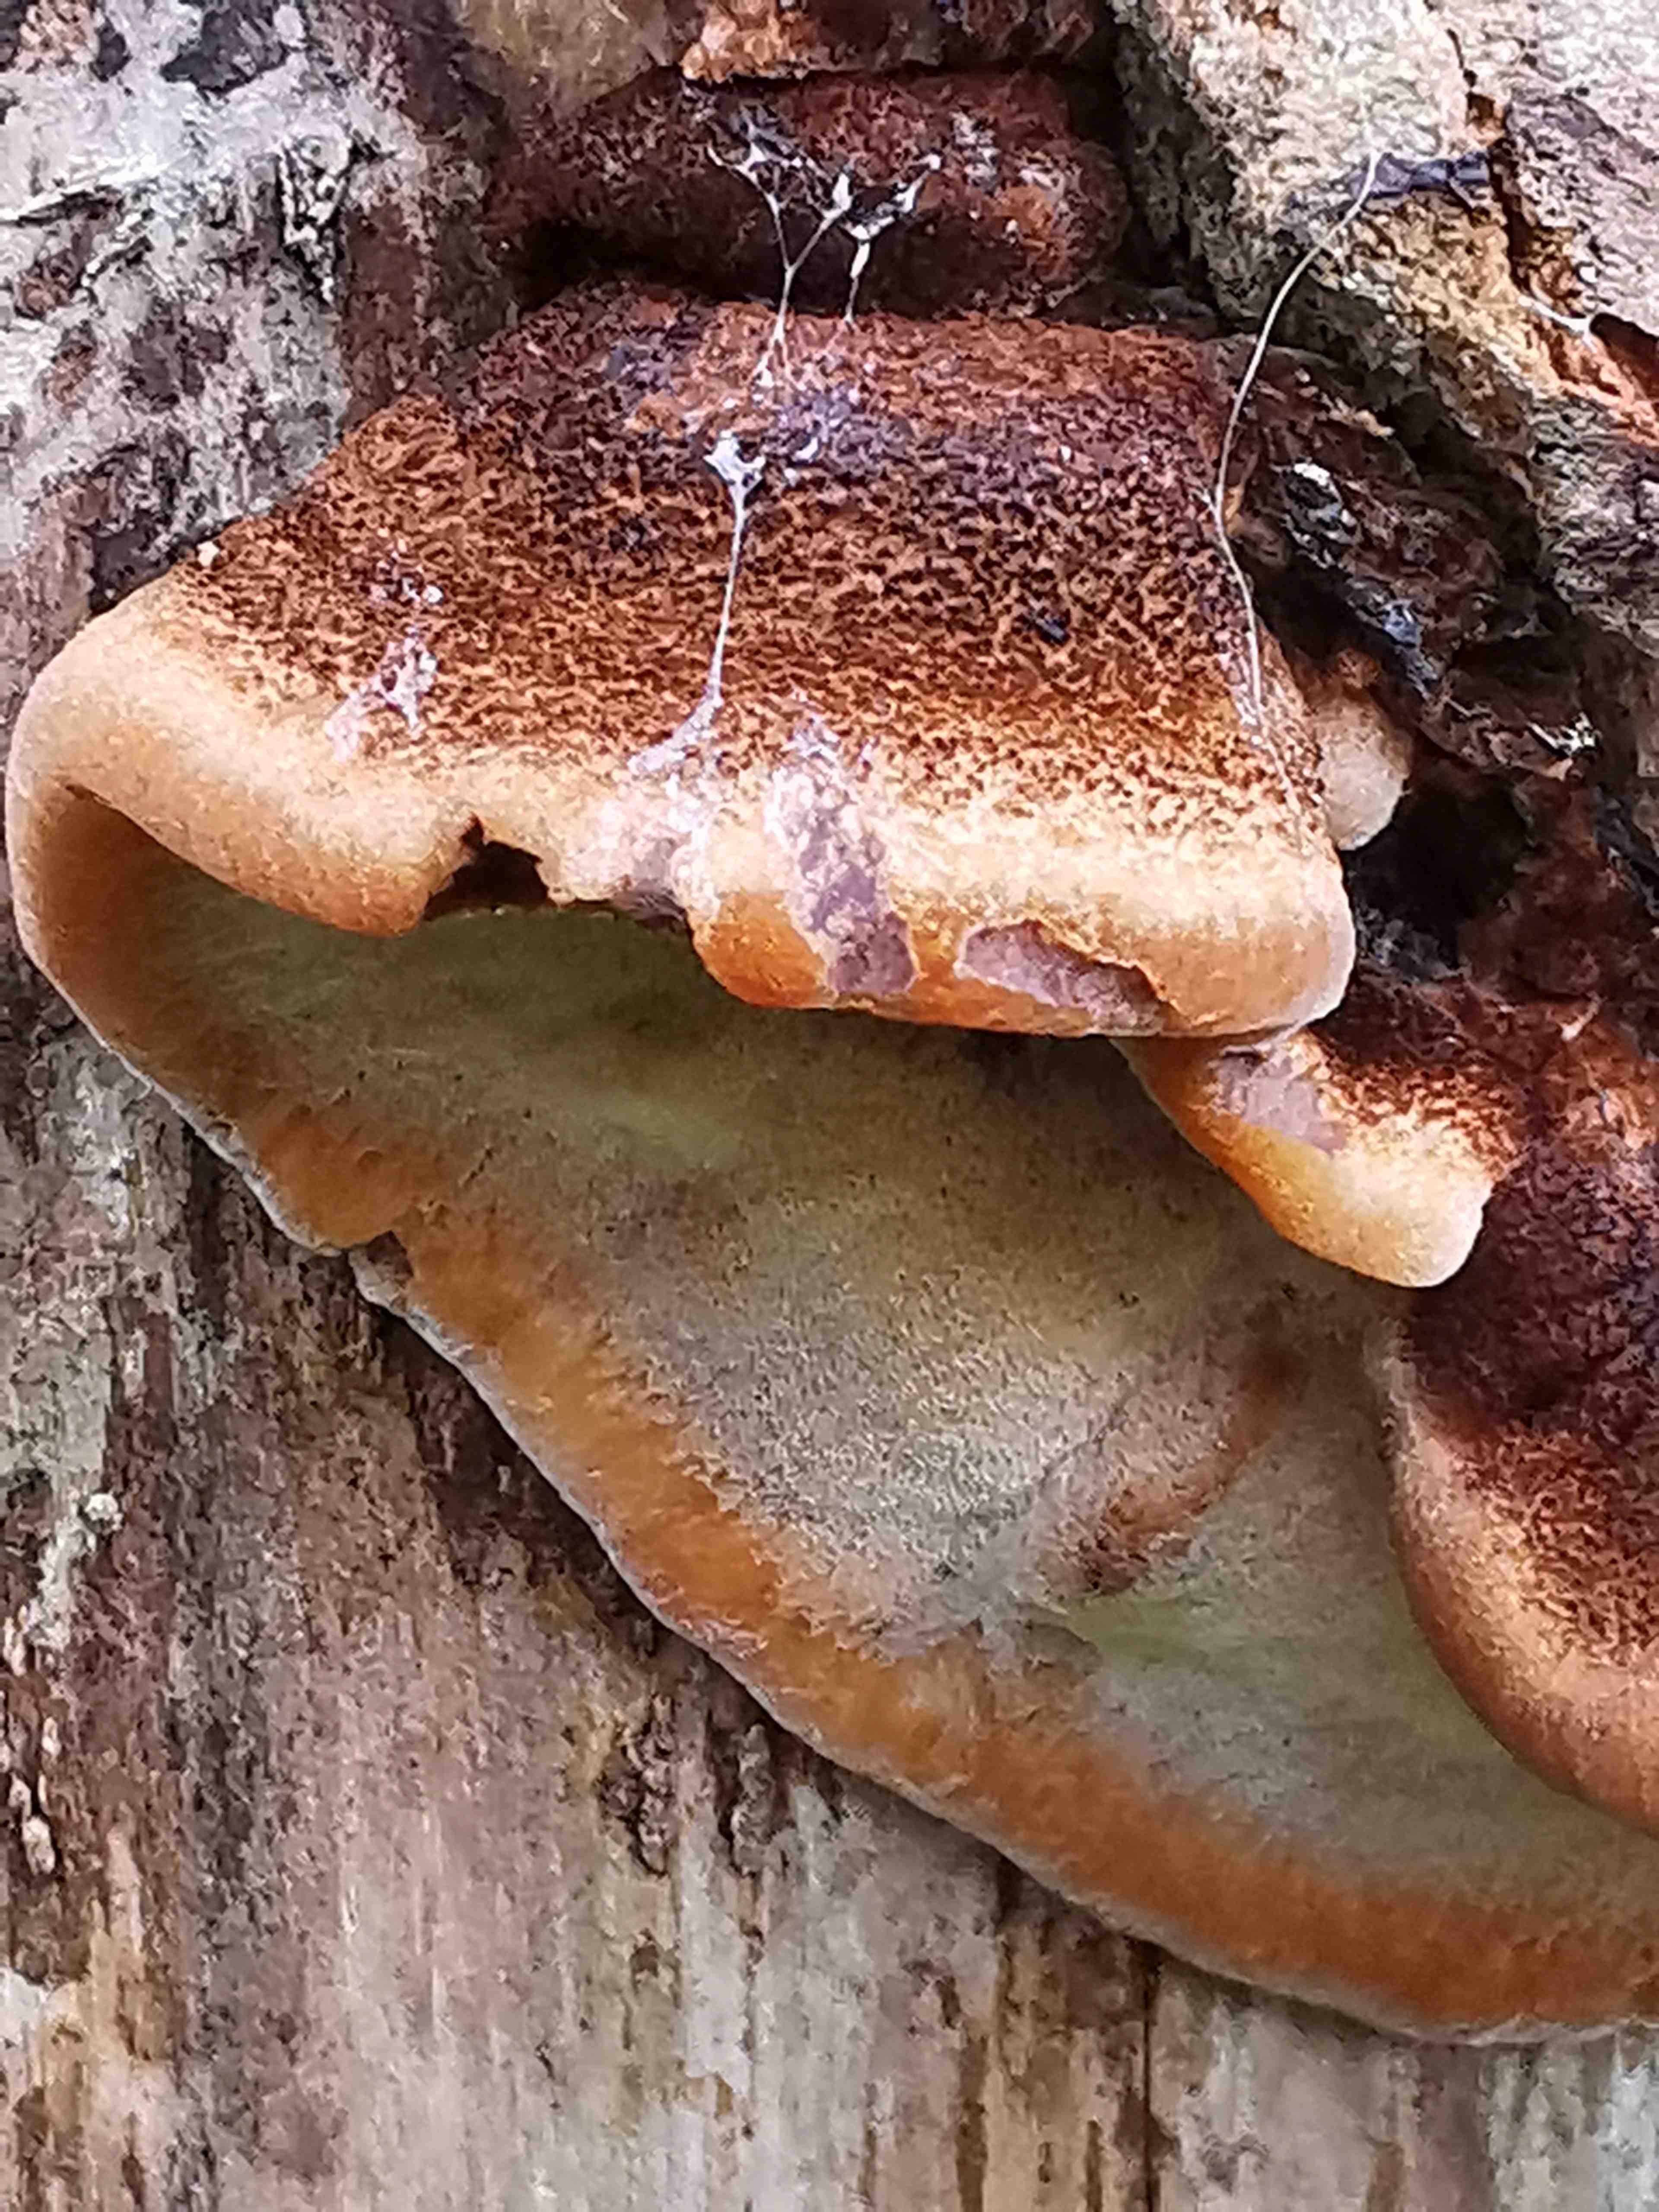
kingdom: Fungi
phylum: Basidiomycota
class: Agaricomycetes
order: Polyporales
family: Ischnodermataceae
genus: Ischnoderma
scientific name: Ischnoderma benzoinum
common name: gran-tjæreporesvamp
